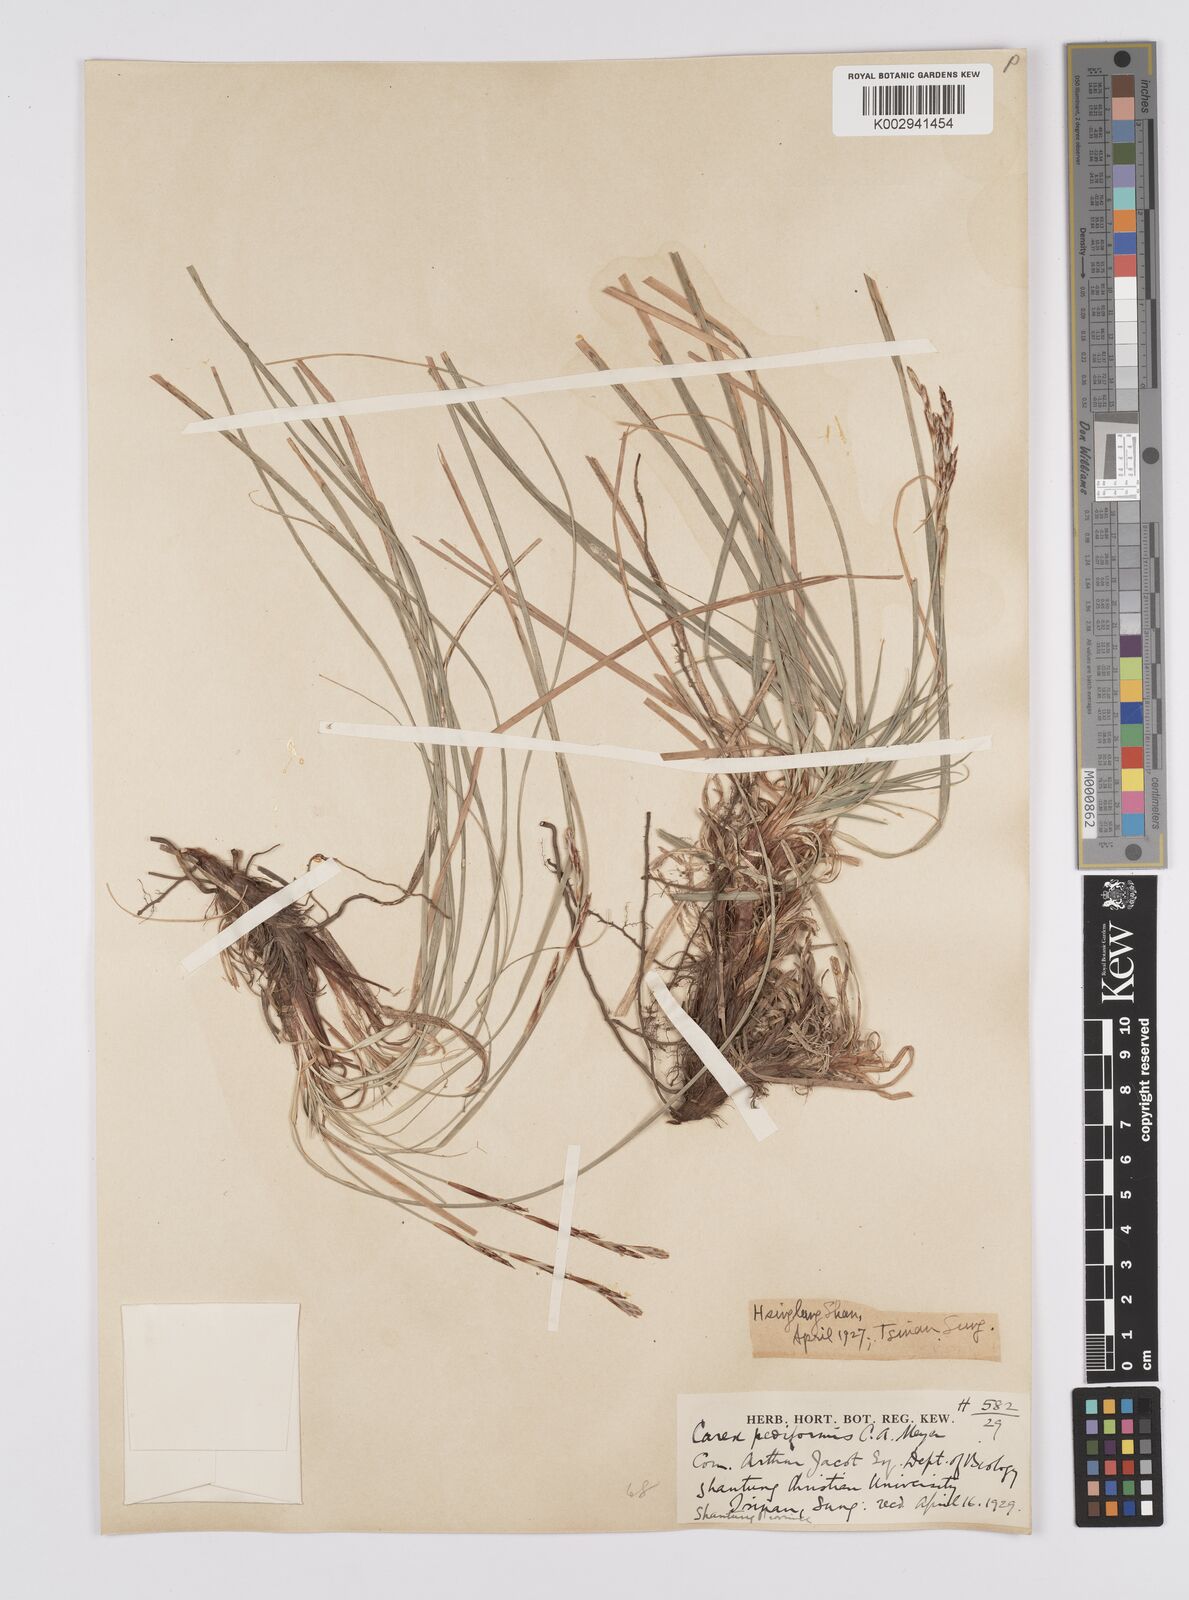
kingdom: Plantae
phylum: Tracheophyta
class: Liliopsida
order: Poales
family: Cyperaceae
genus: Carex
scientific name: Carex lanceolata
